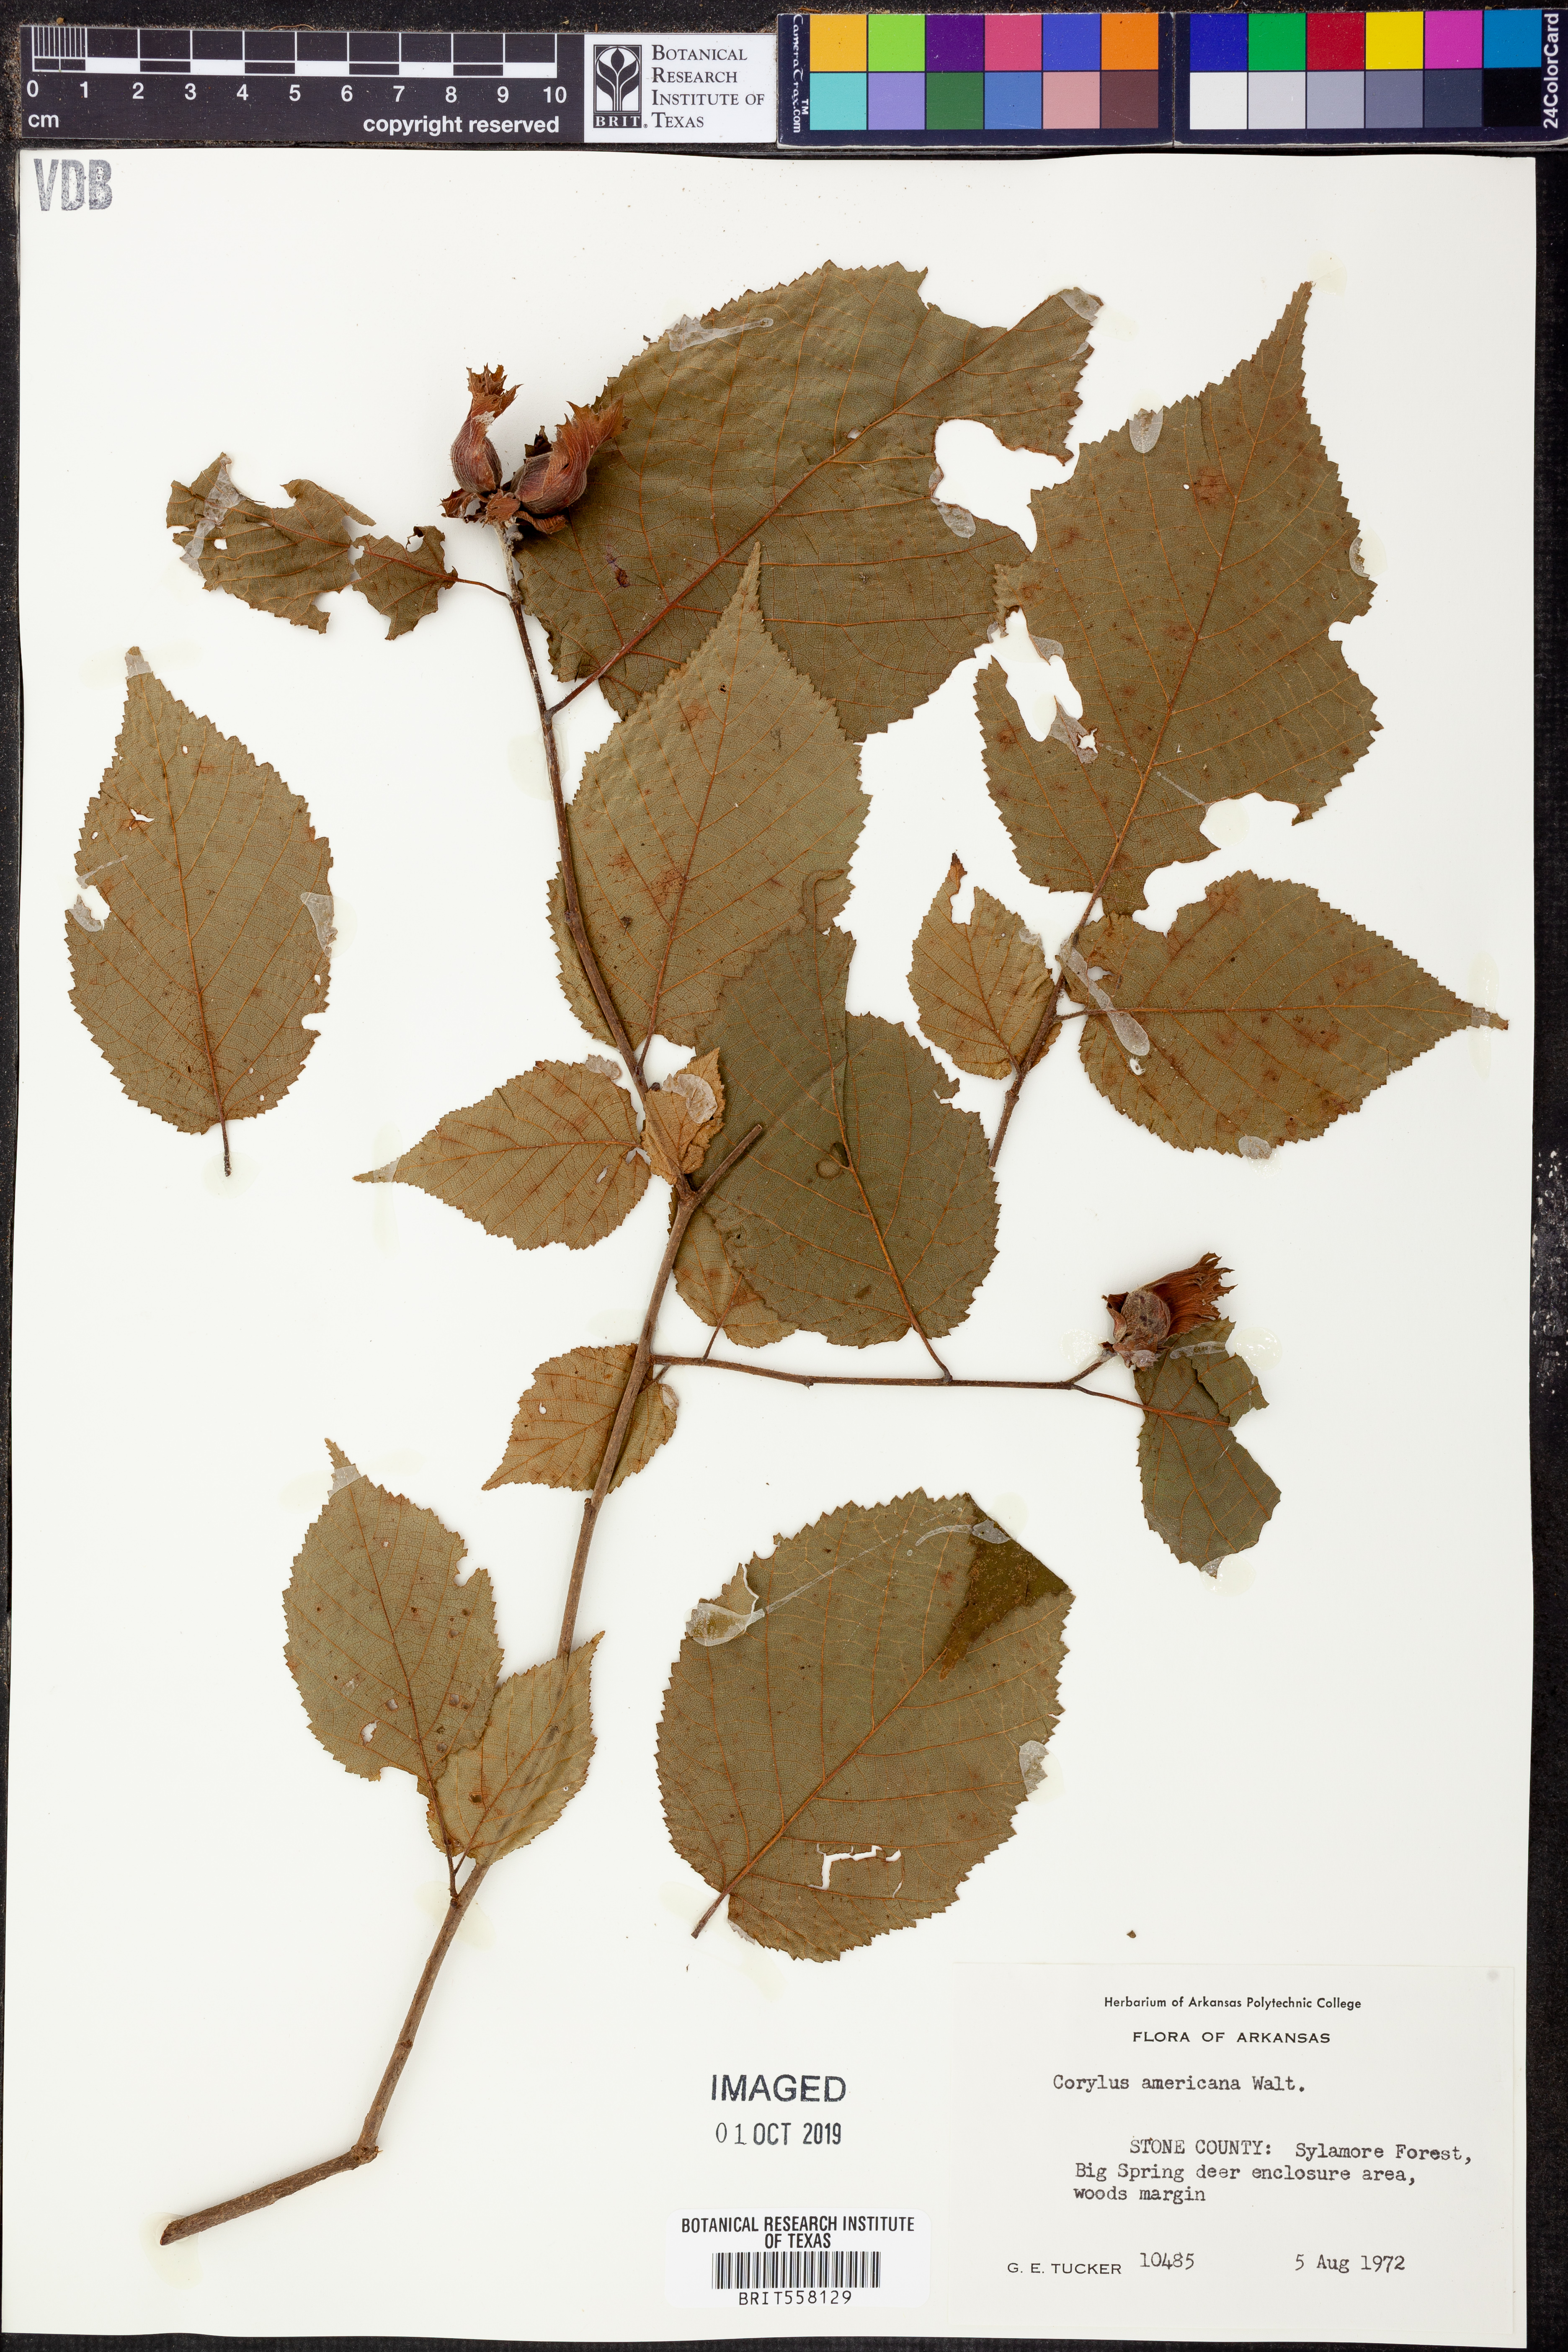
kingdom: Plantae
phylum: Tracheophyta
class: Magnoliopsida
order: Fagales
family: Betulaceae
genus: Corylus
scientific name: Corylus americana
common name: American hazel
